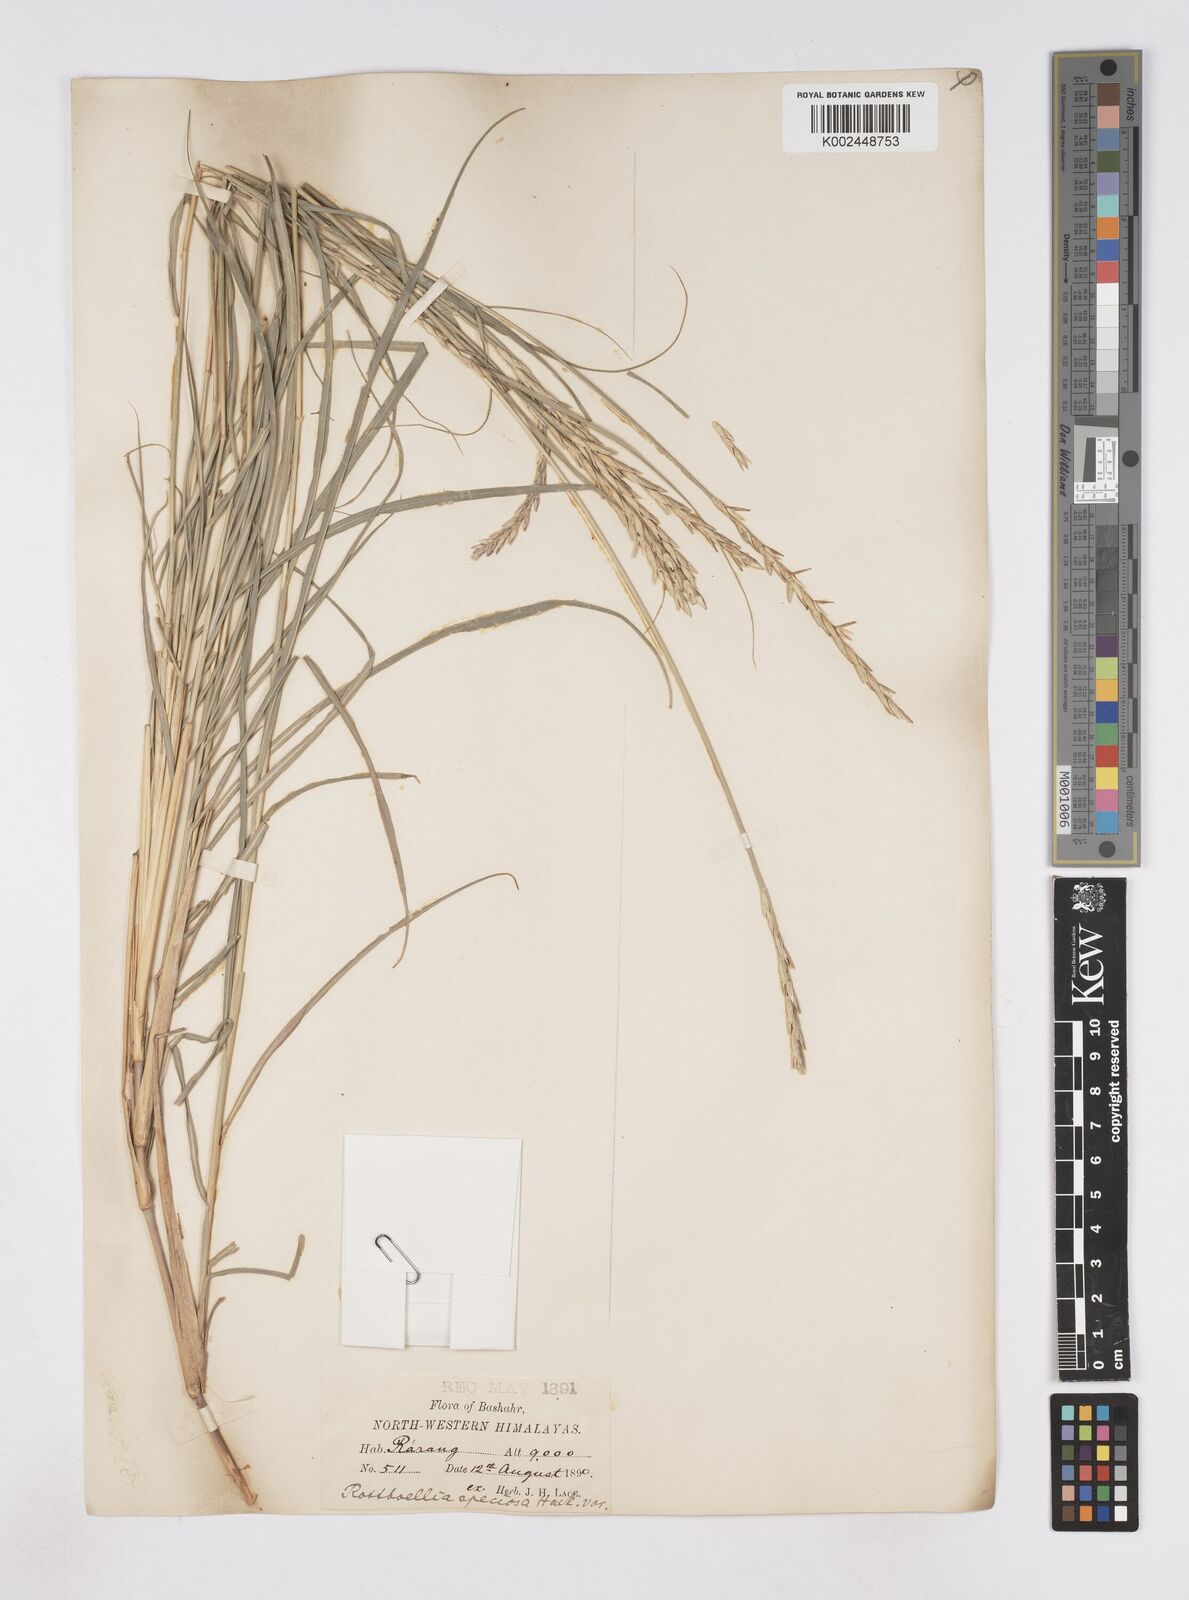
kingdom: Plantae
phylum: Tracheophyta
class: Liliopsida
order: Poales
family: Poaceae
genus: Phacelurus
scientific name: Phacelurus speciosus
